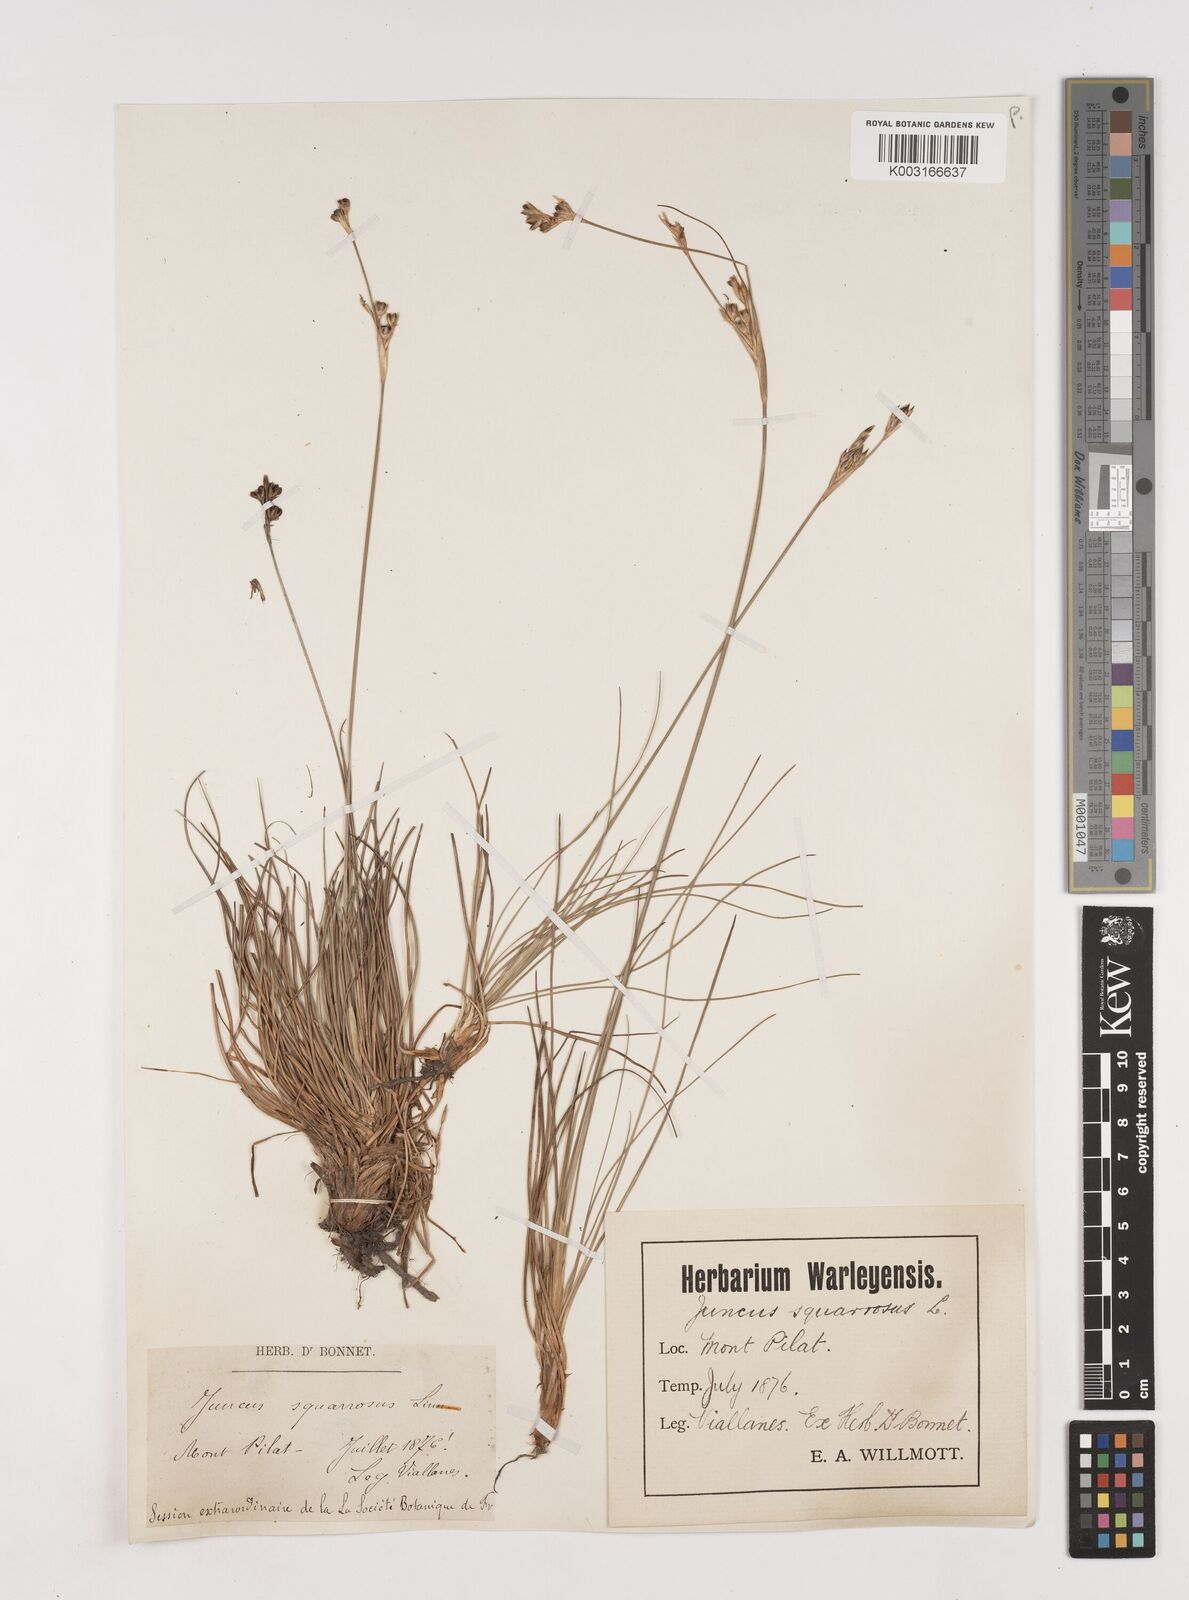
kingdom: Plantae
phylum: Tracheophyta
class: Liliopsida
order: Poales
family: Juncaceae
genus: Juncus
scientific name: Juncus squarrosus
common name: Heath rush
